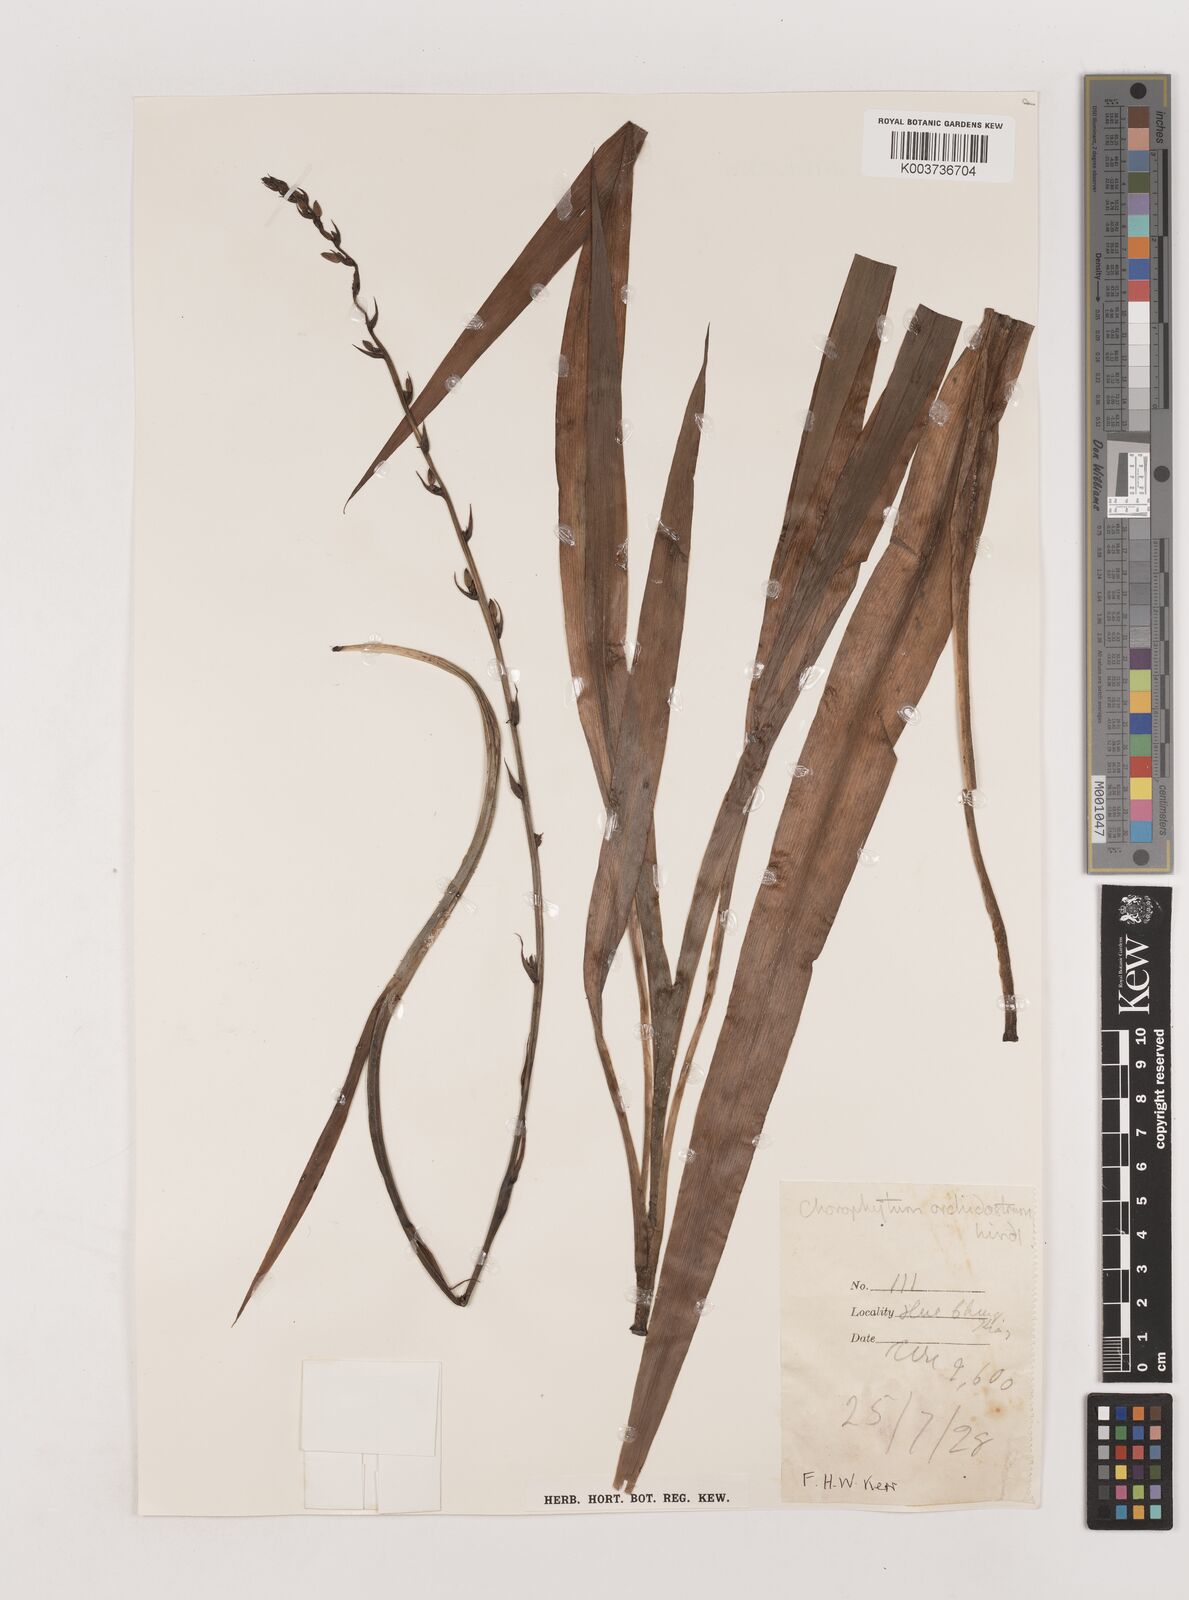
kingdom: Plantae
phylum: Tracheophyta
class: Liliopsida
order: Asparagales
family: Asparagaceae
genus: Chlorophytum
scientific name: Chlorophytum orchidastrum
